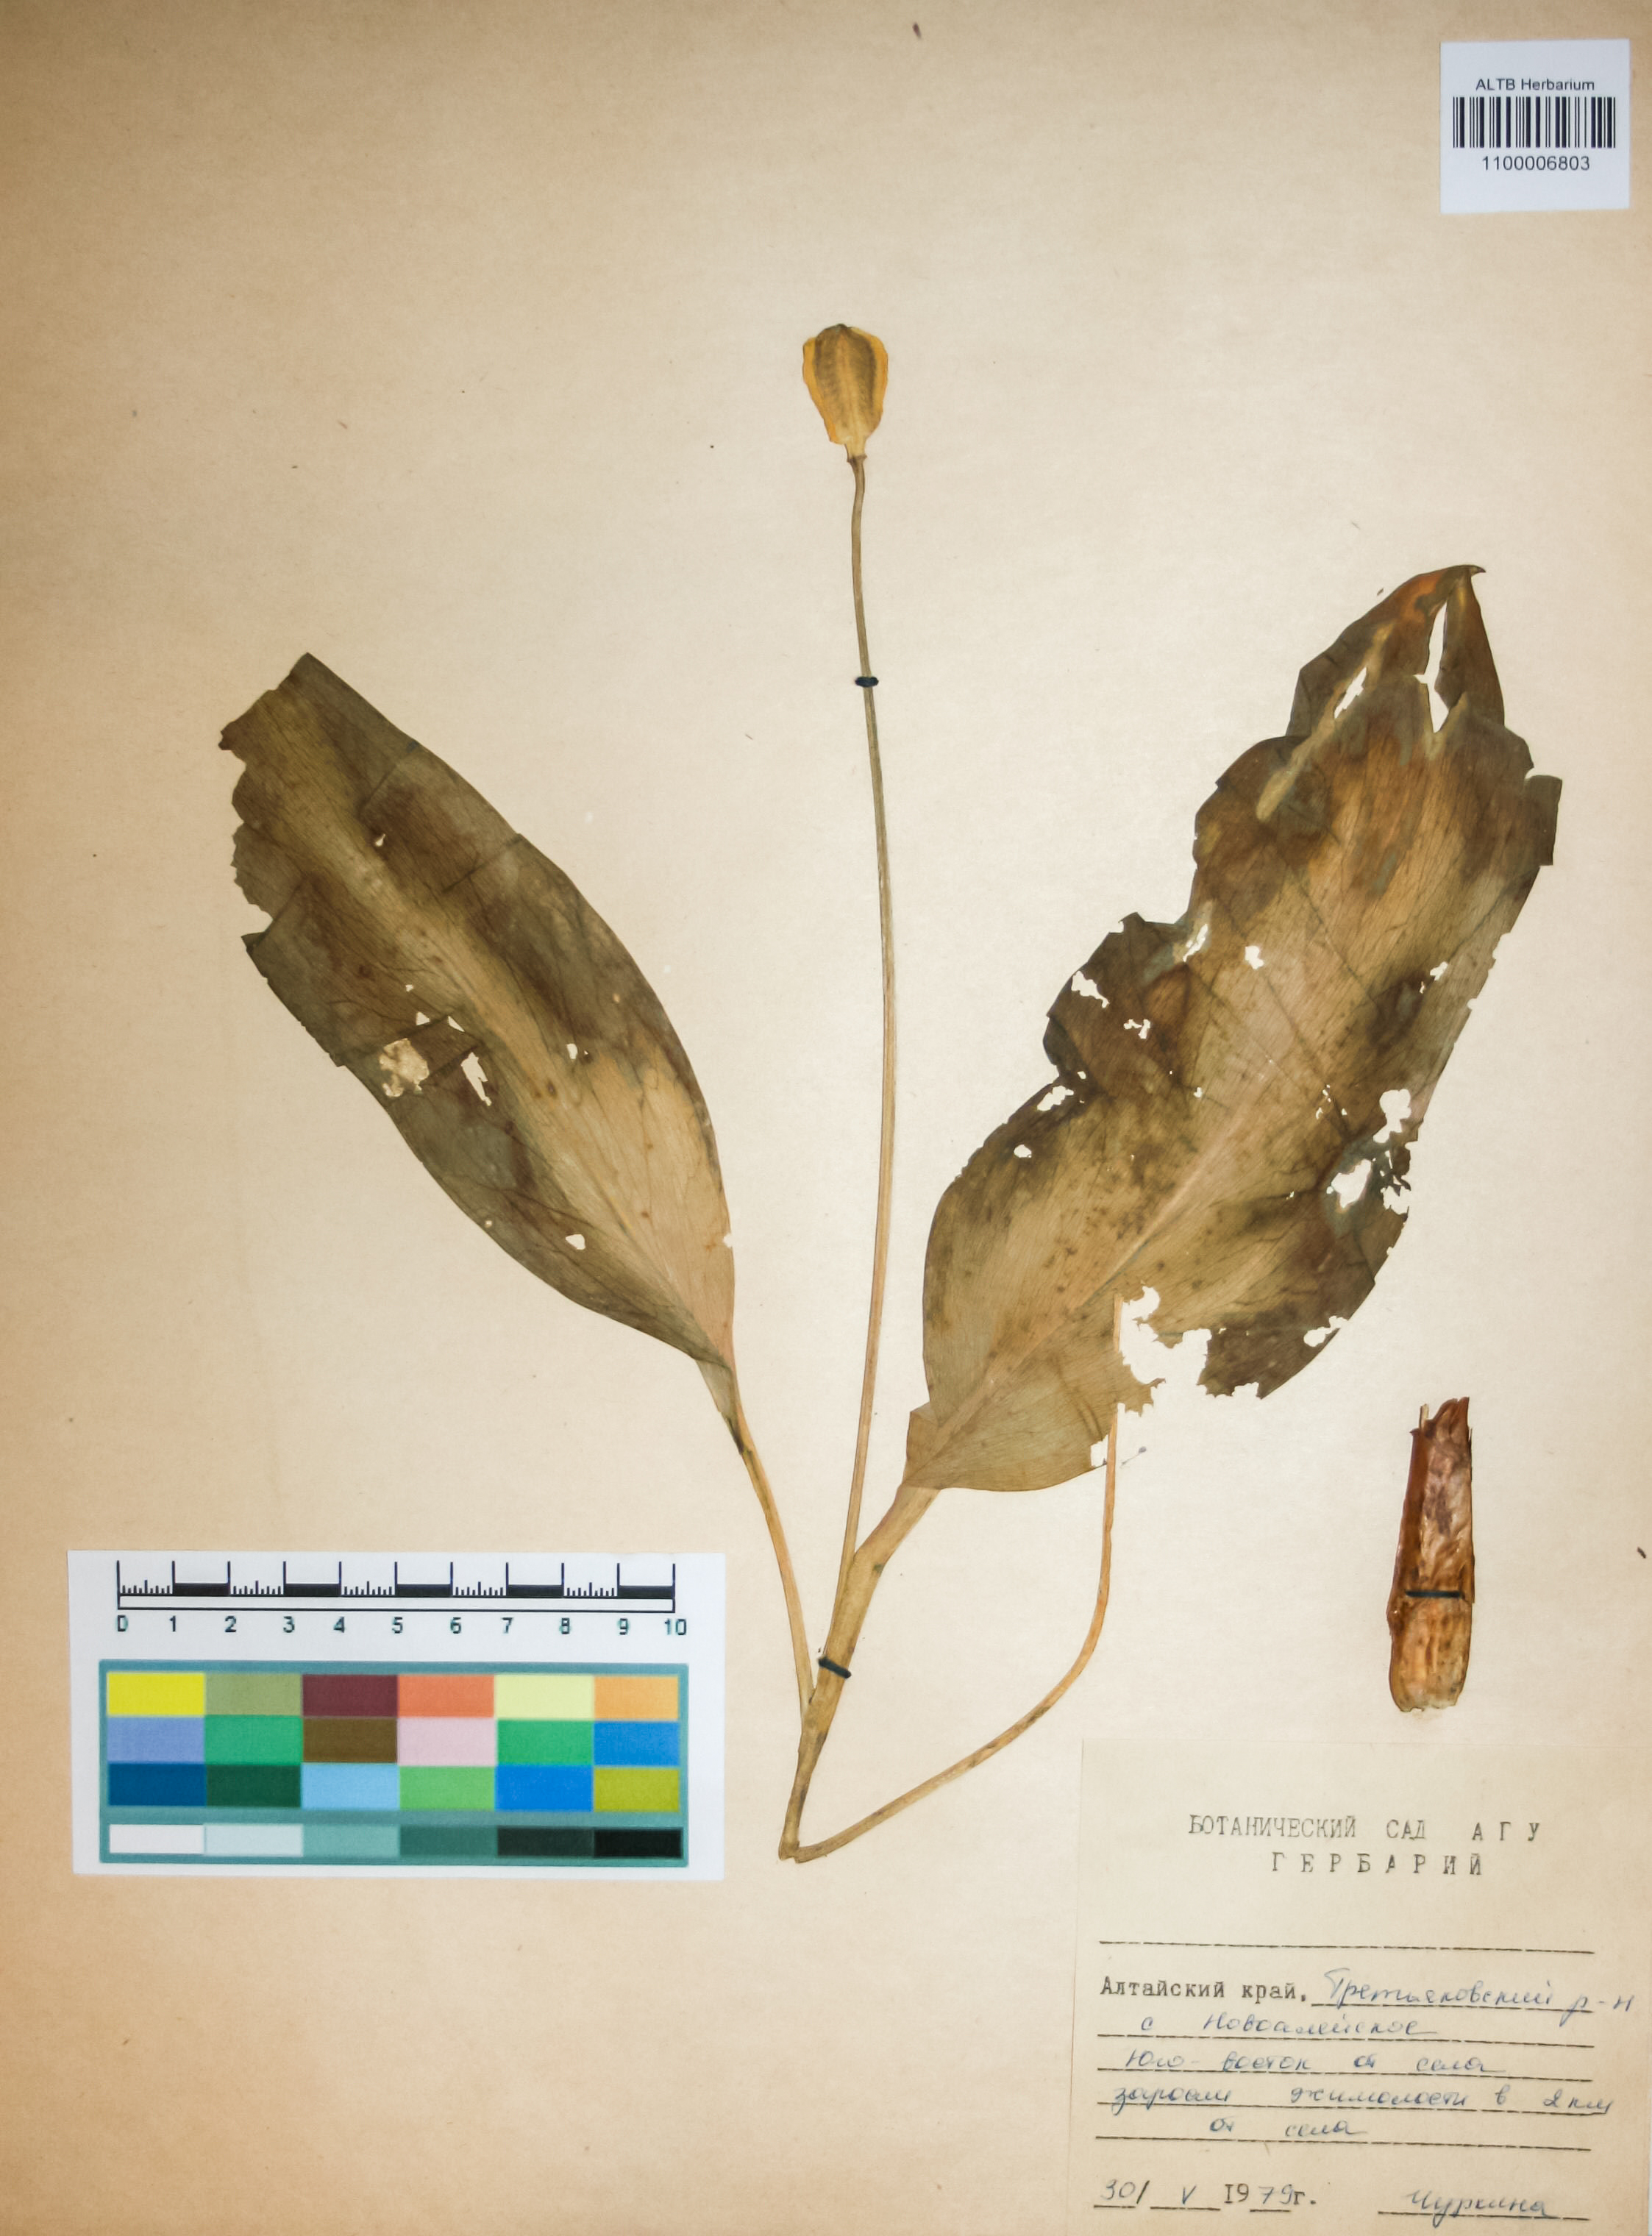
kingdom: Plantae
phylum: Tracheophyta
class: Liliopsida
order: Liliales
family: Liliaceae
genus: Erythronium
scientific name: Erythronium sibiricum
